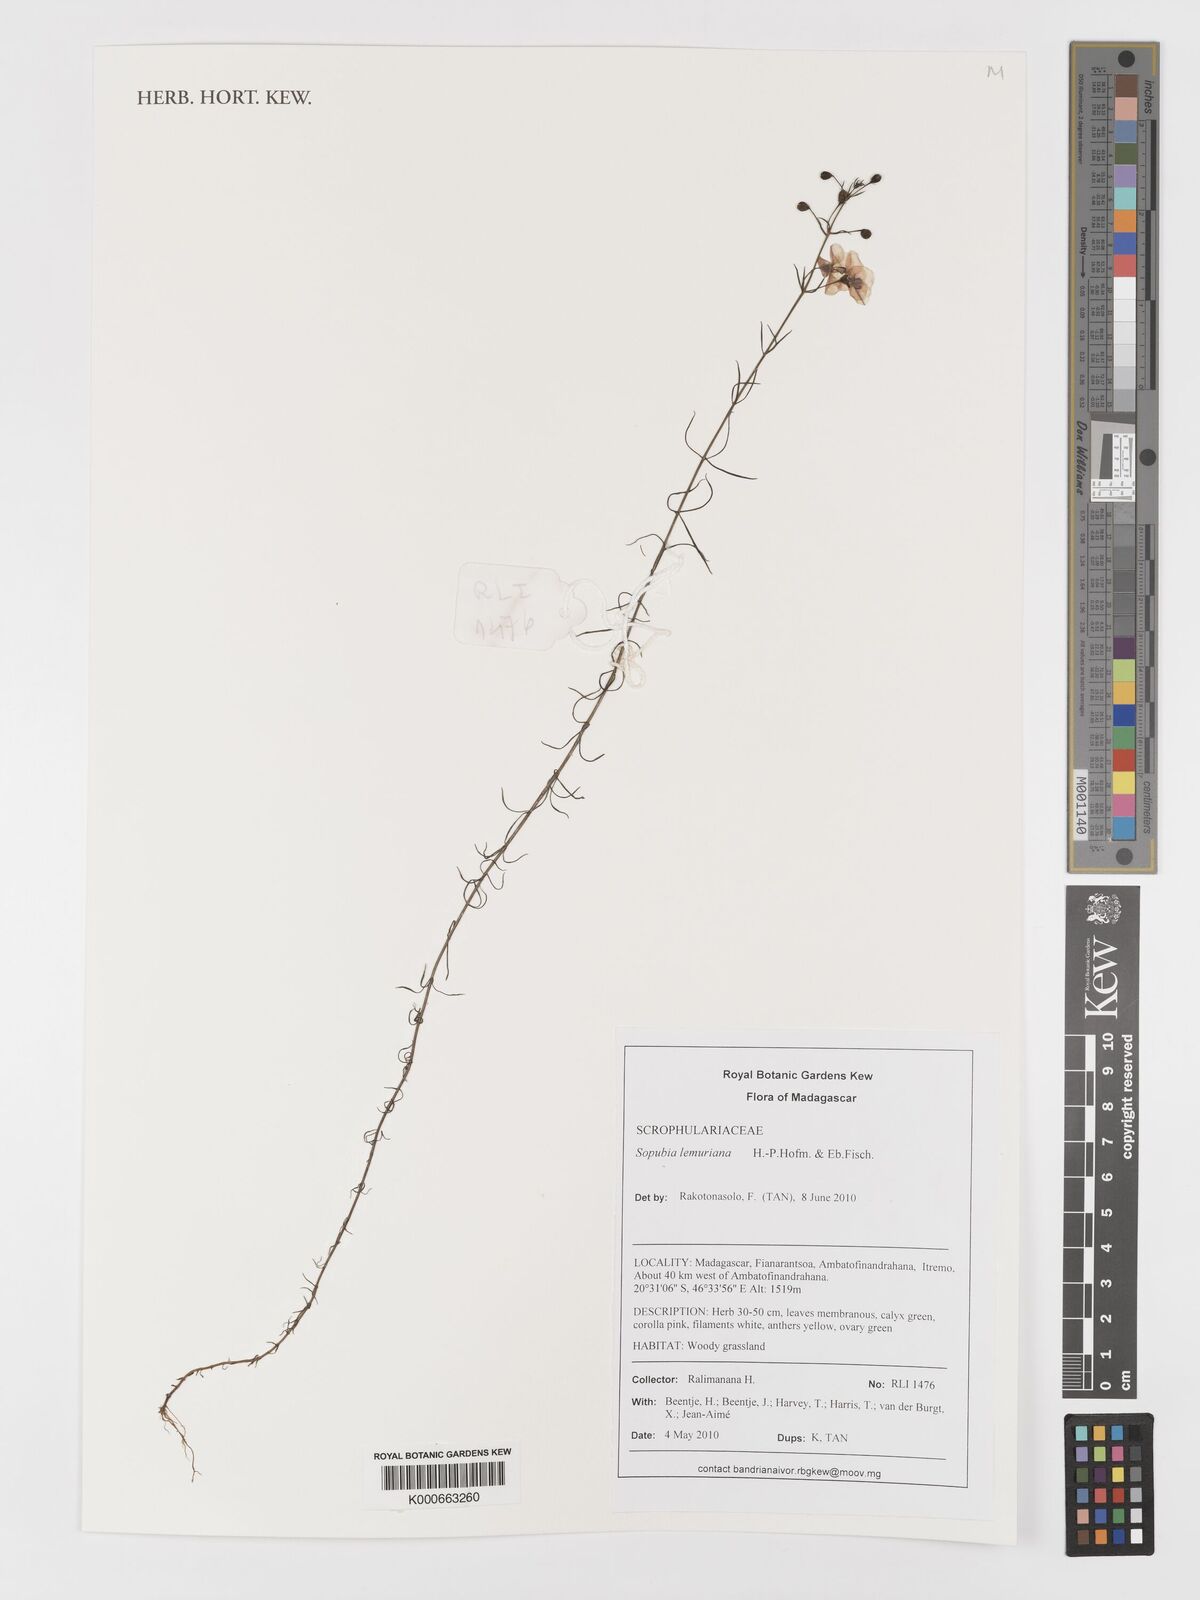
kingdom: Plantae
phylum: Tracheophyta
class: Magnoliopsida
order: Lamiales
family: Orobanchaceae
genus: Sopubia
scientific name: Sopubia lemuriana
